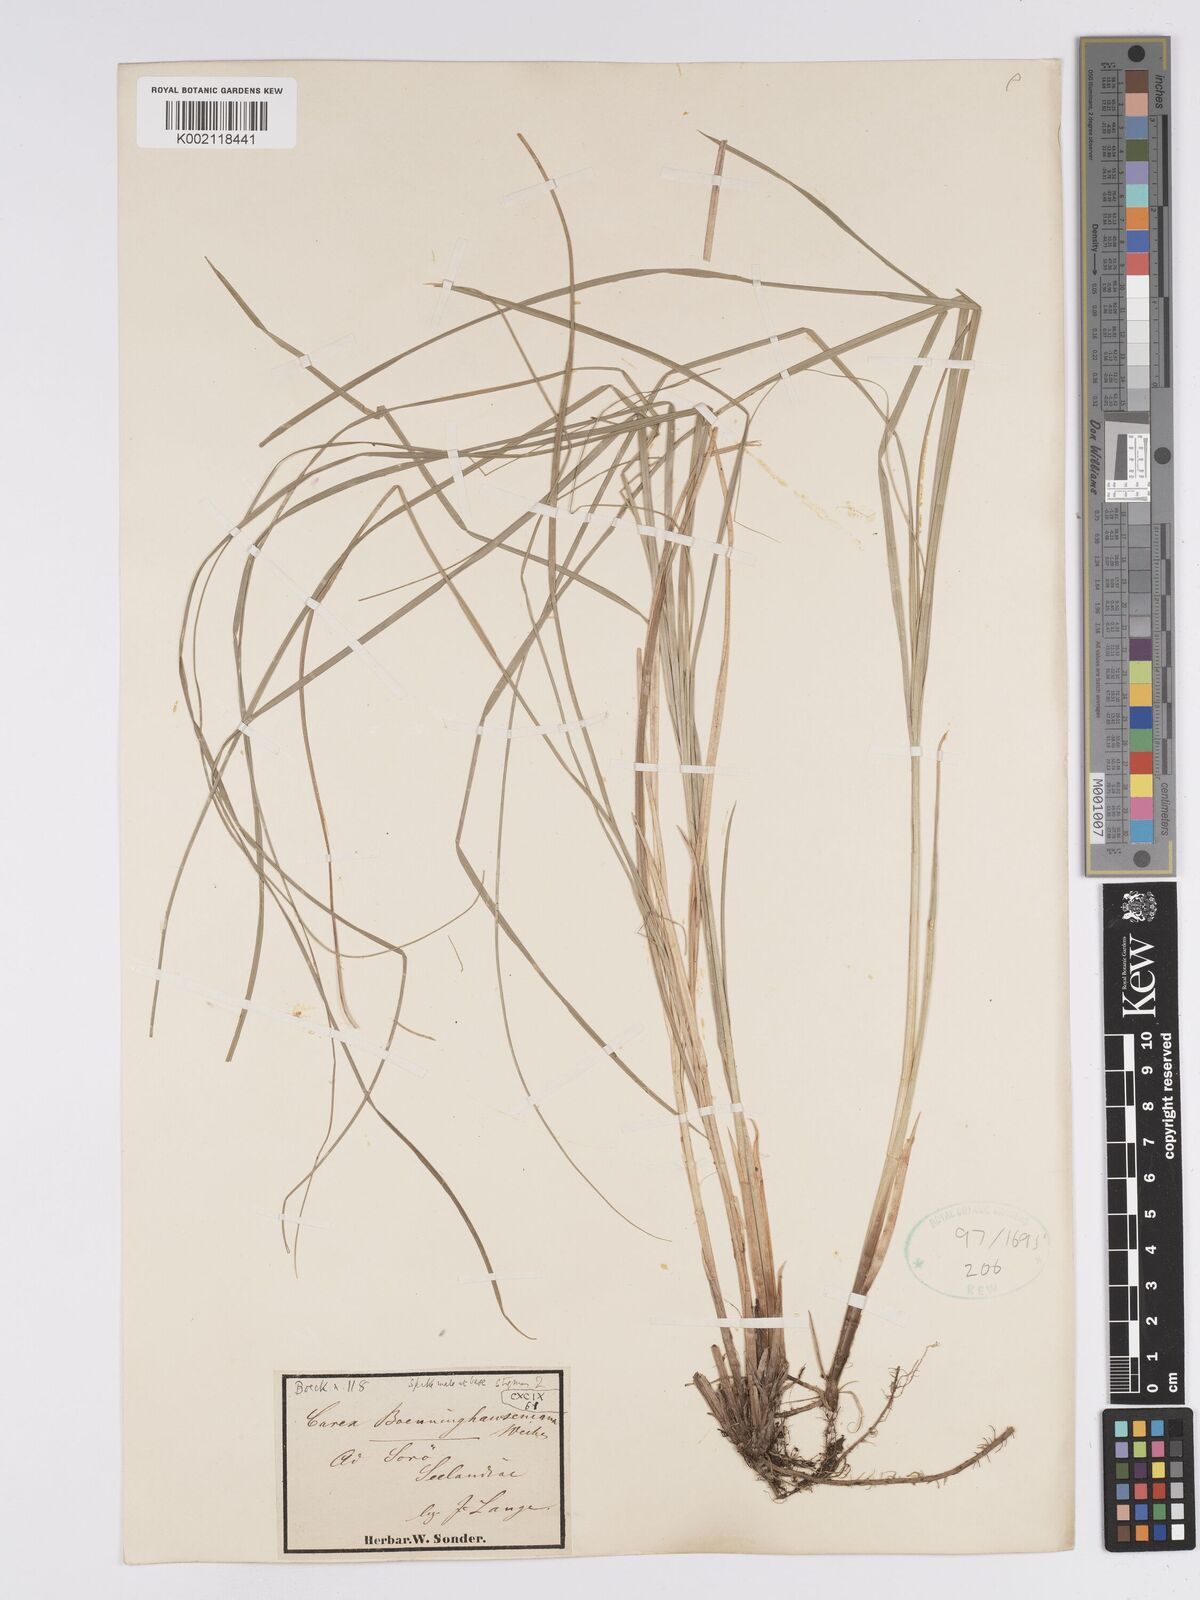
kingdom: Plantae
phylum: Tracheophyta
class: Liliopsida
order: Poales
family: Cyperaceae
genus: Carex
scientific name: Carex boenninghausiana
